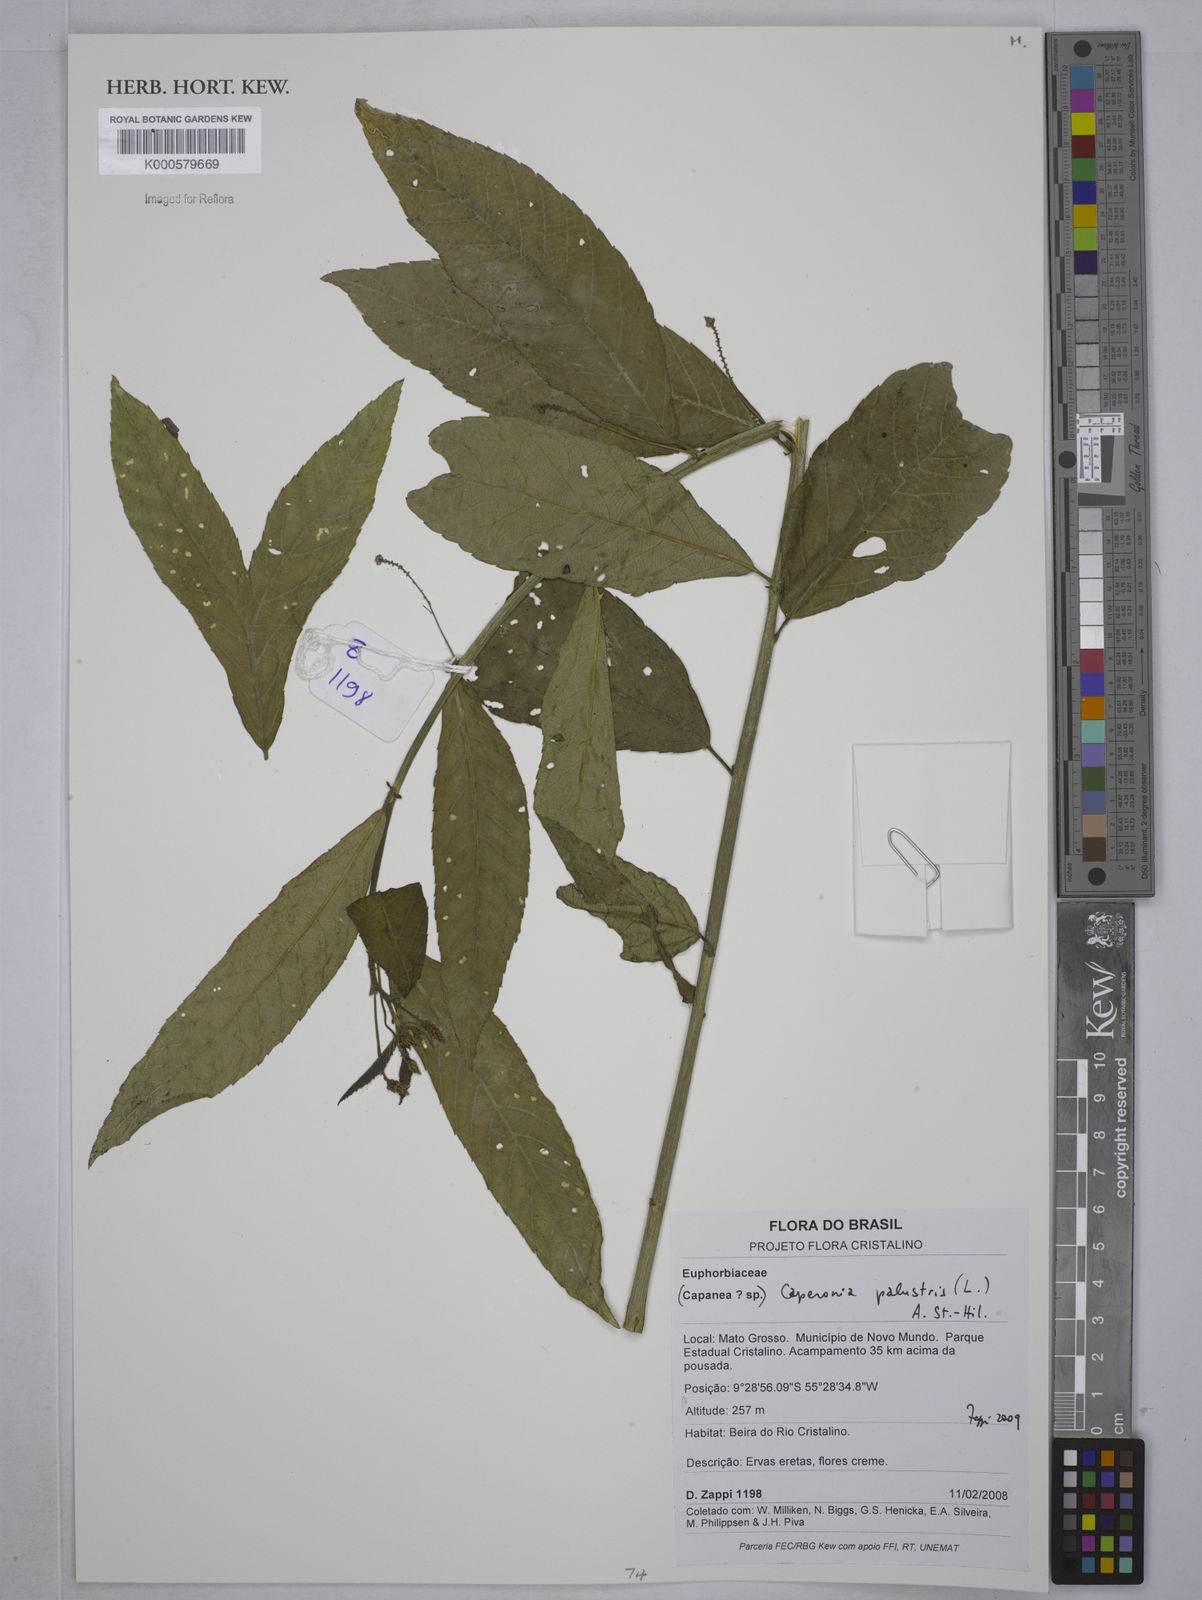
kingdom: Plantae
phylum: Tracheophyta
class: Magnoliopsida
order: Malpighiales
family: Euphorbiaceae
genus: Caperonia
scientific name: Caperonia palustris
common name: Sacatrapo
